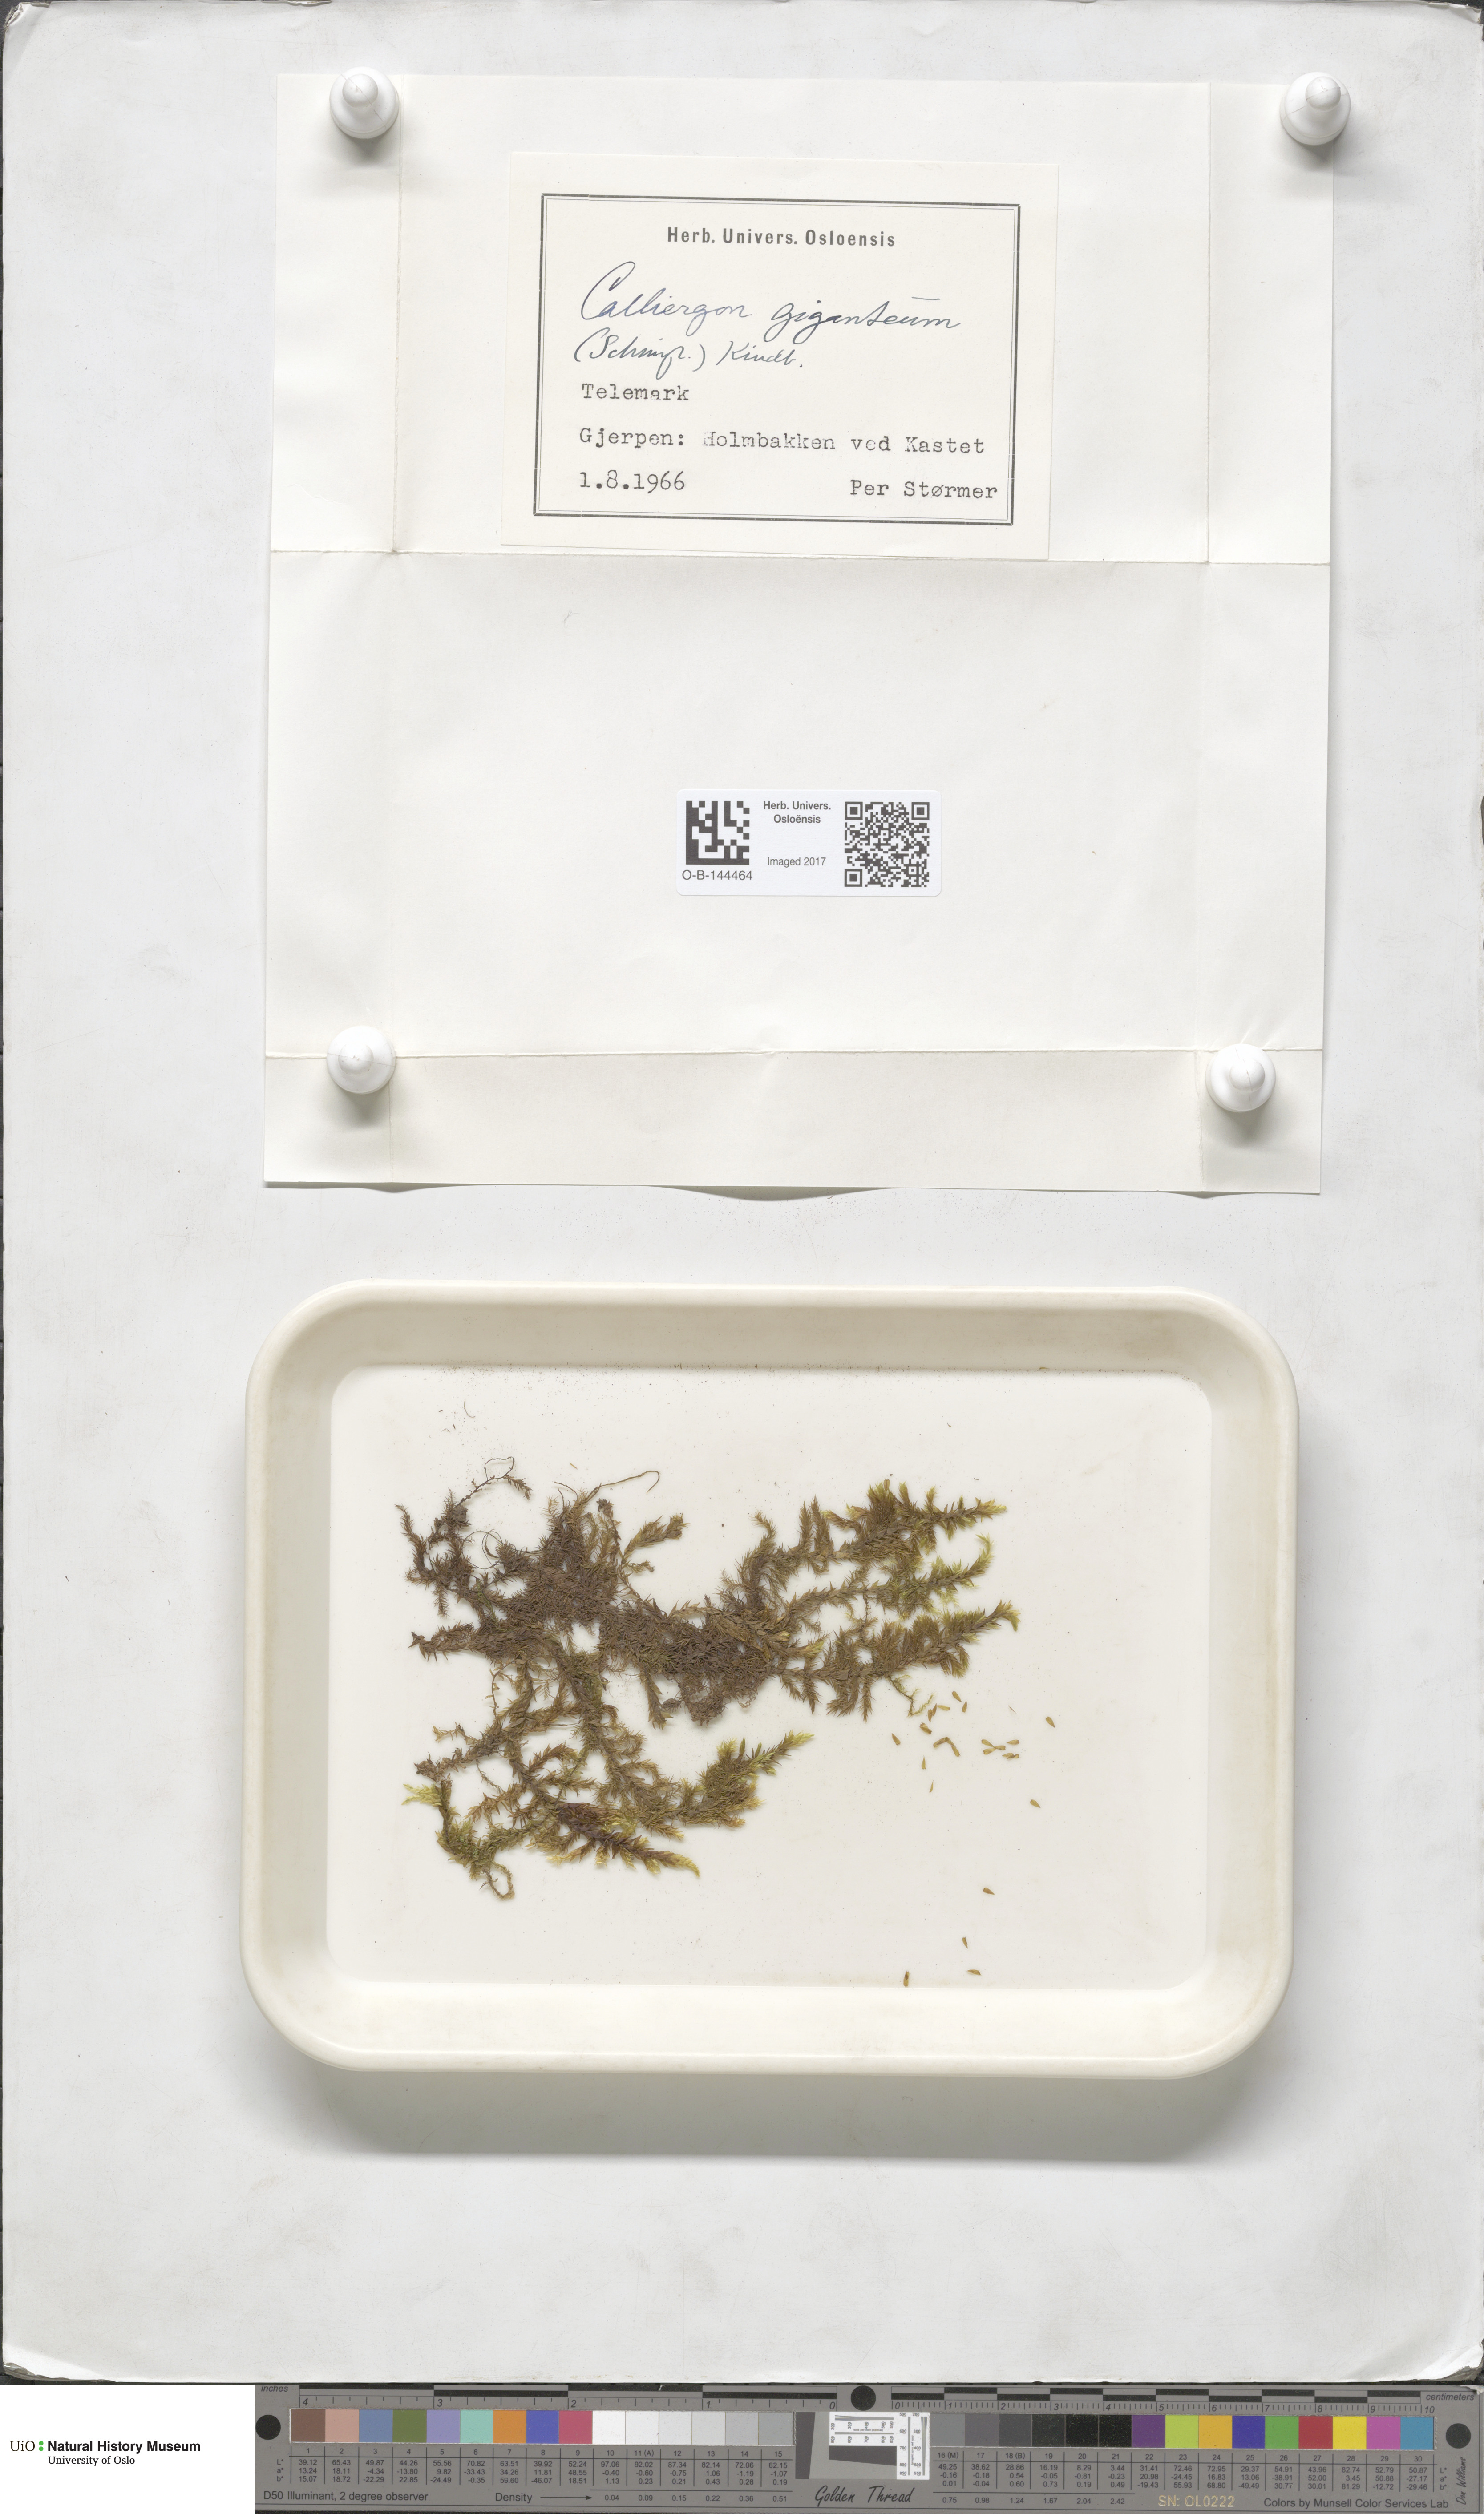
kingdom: Plantae
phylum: Bryophyta
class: Bryopsida
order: Hypnales
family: Calliergonaceae
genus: Calliergon
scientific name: Calliergon giganteum
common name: Giant spear moss
